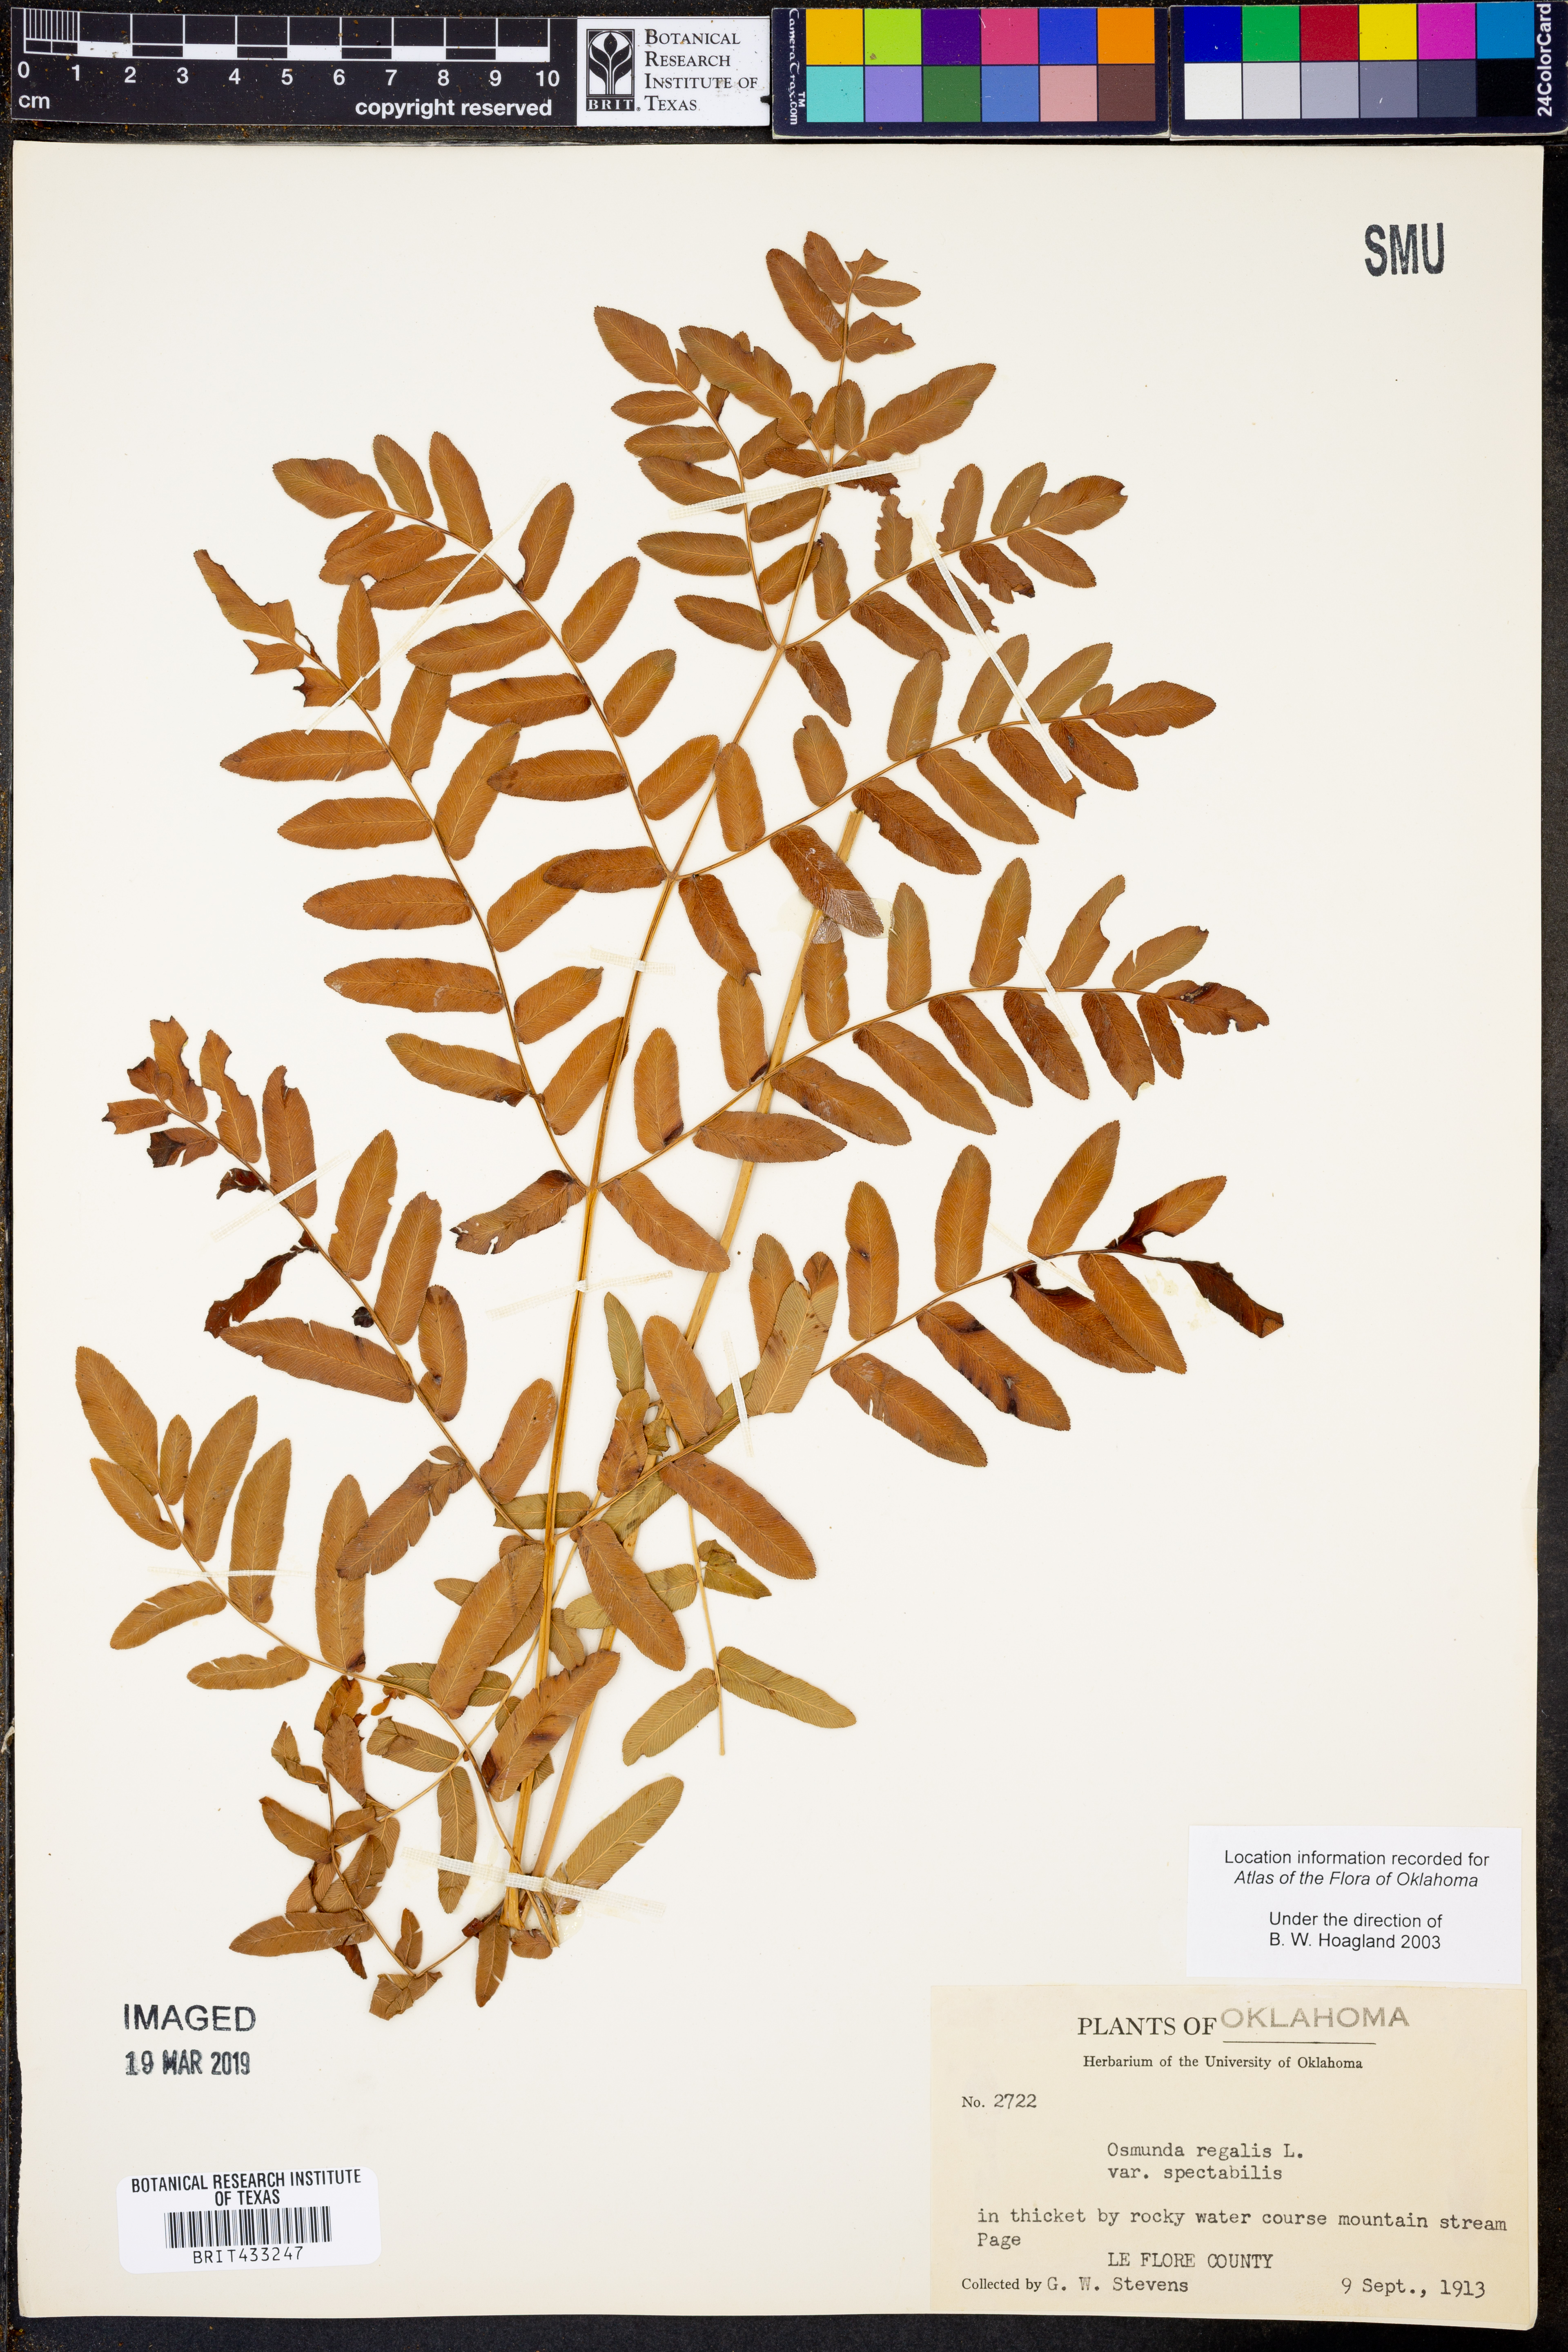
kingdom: Plantae
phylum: Tracheophyta
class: Polypodiopsida
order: Osmundales
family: Osmundaceae
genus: Osmunda
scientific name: Osmunda spectabilis
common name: American royal fern
